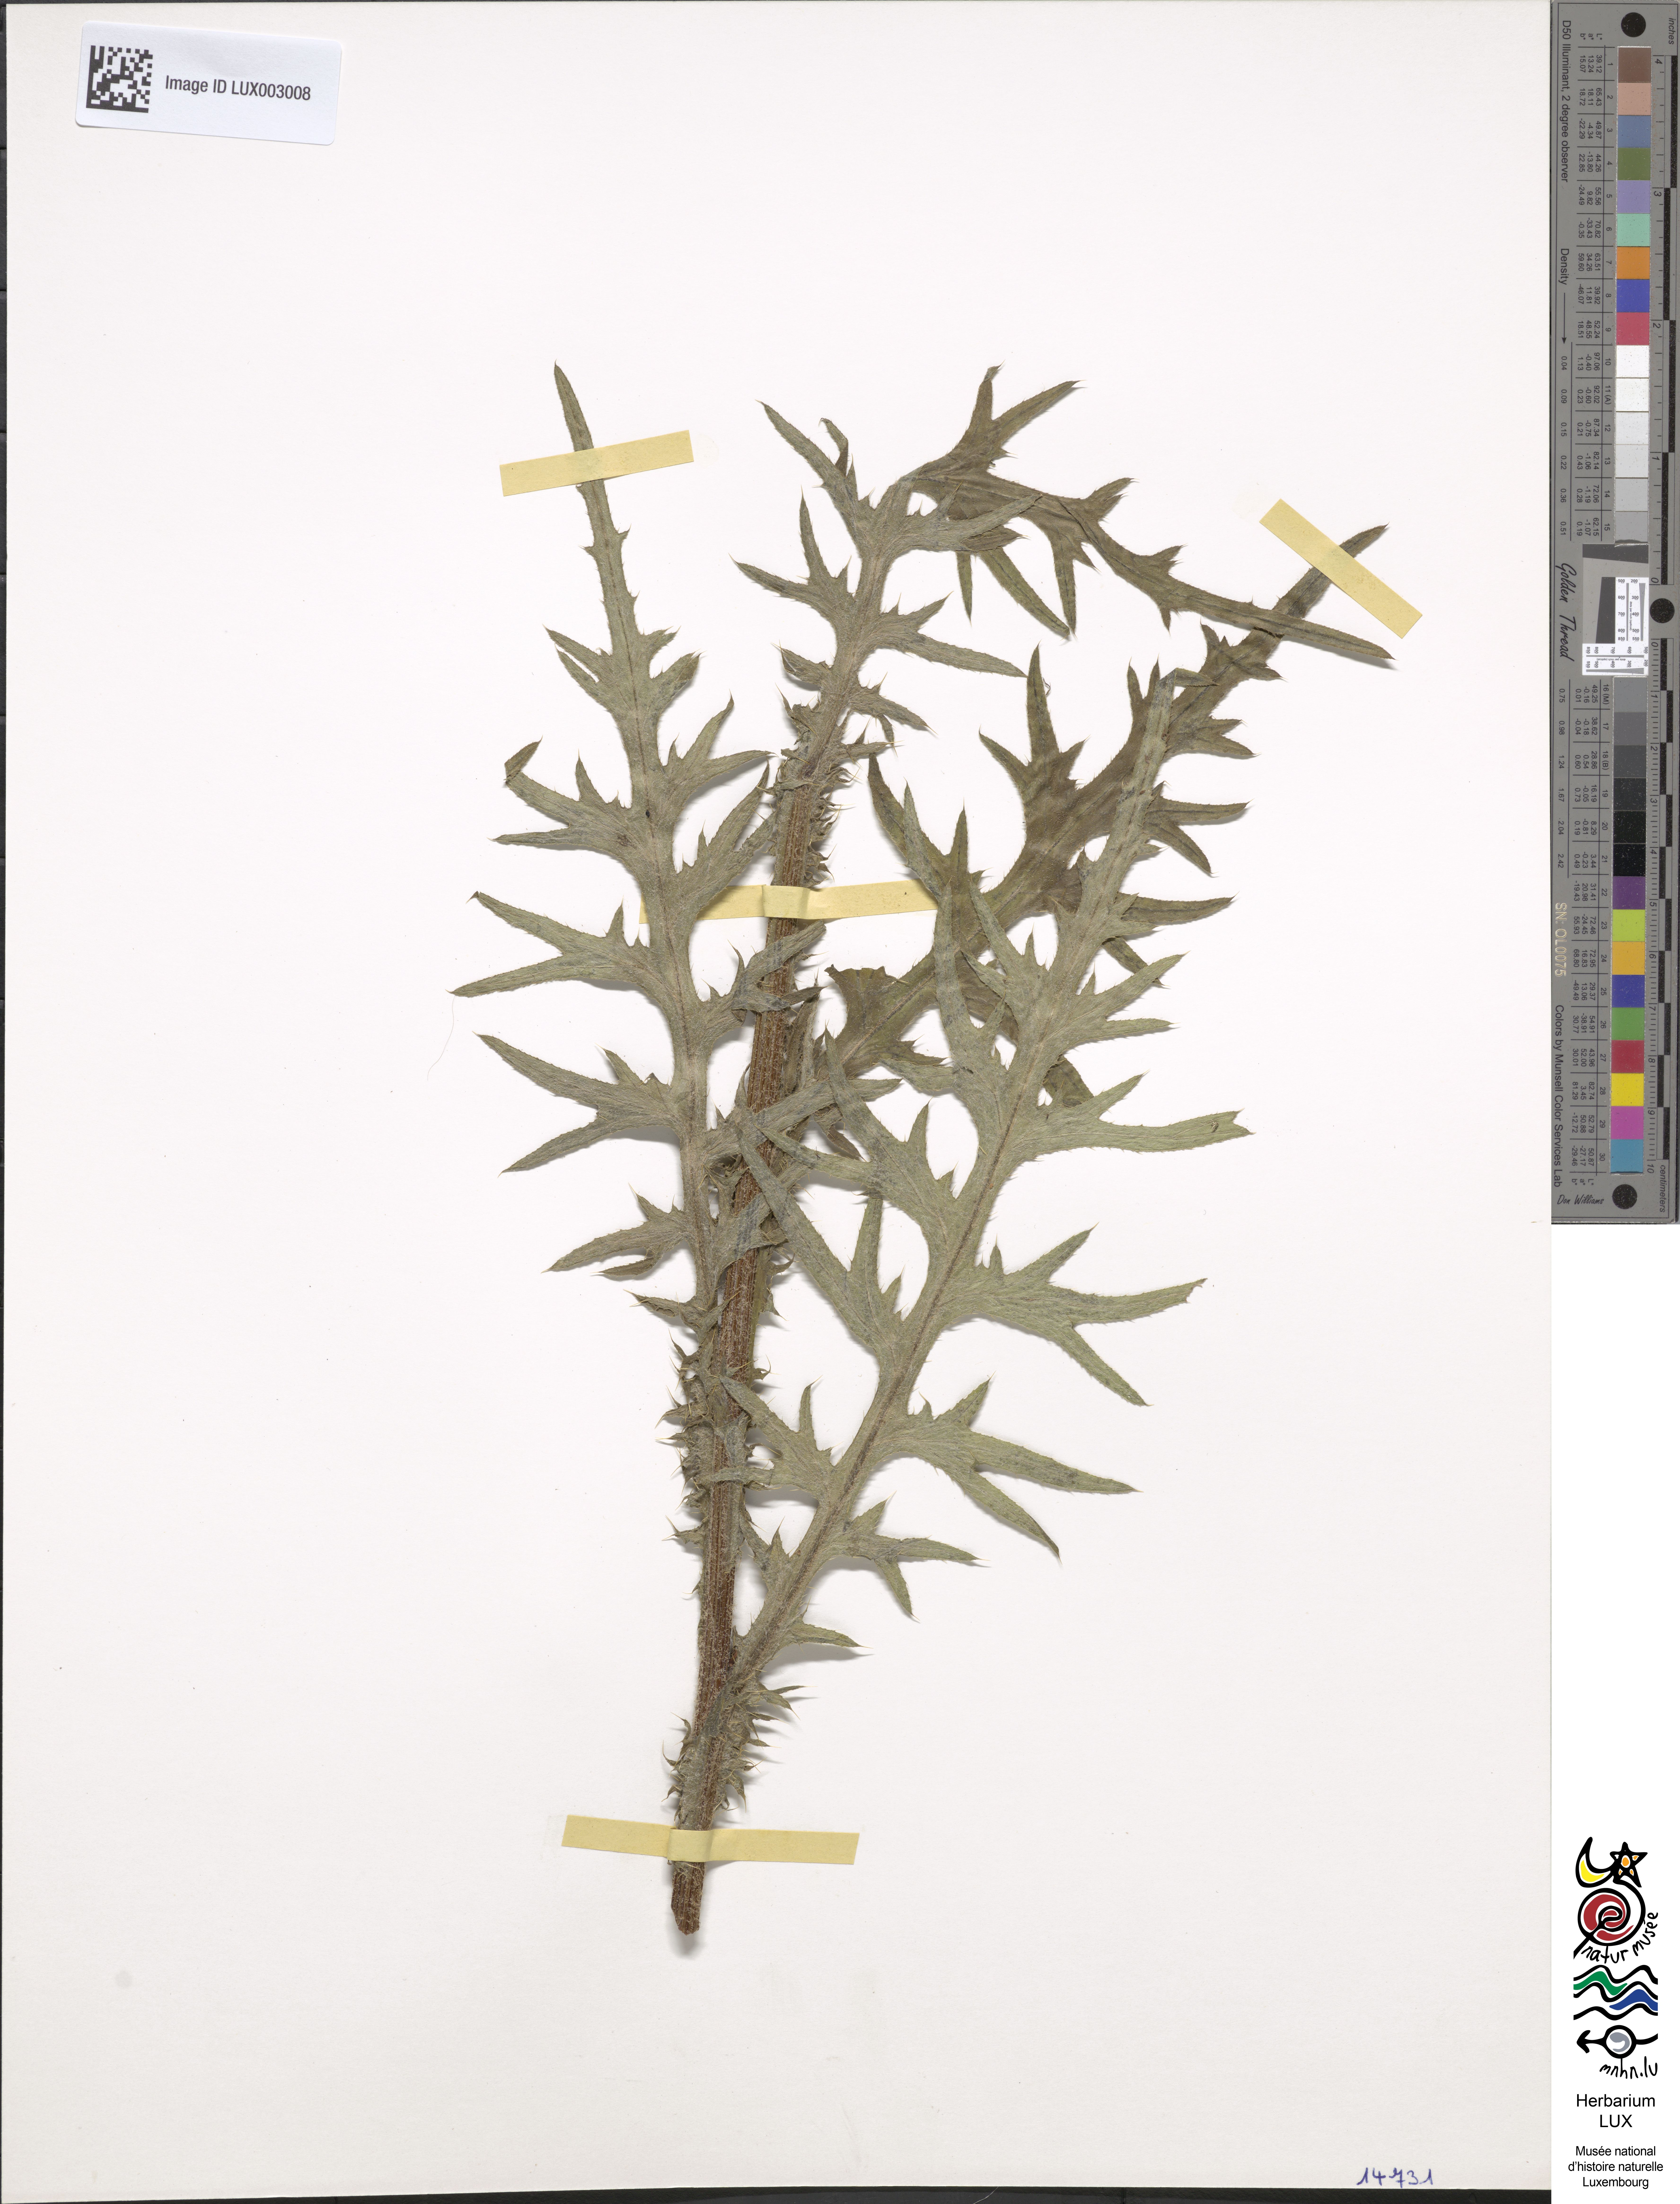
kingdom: Plantae
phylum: Tracheophyta
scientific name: Tracheophyta
